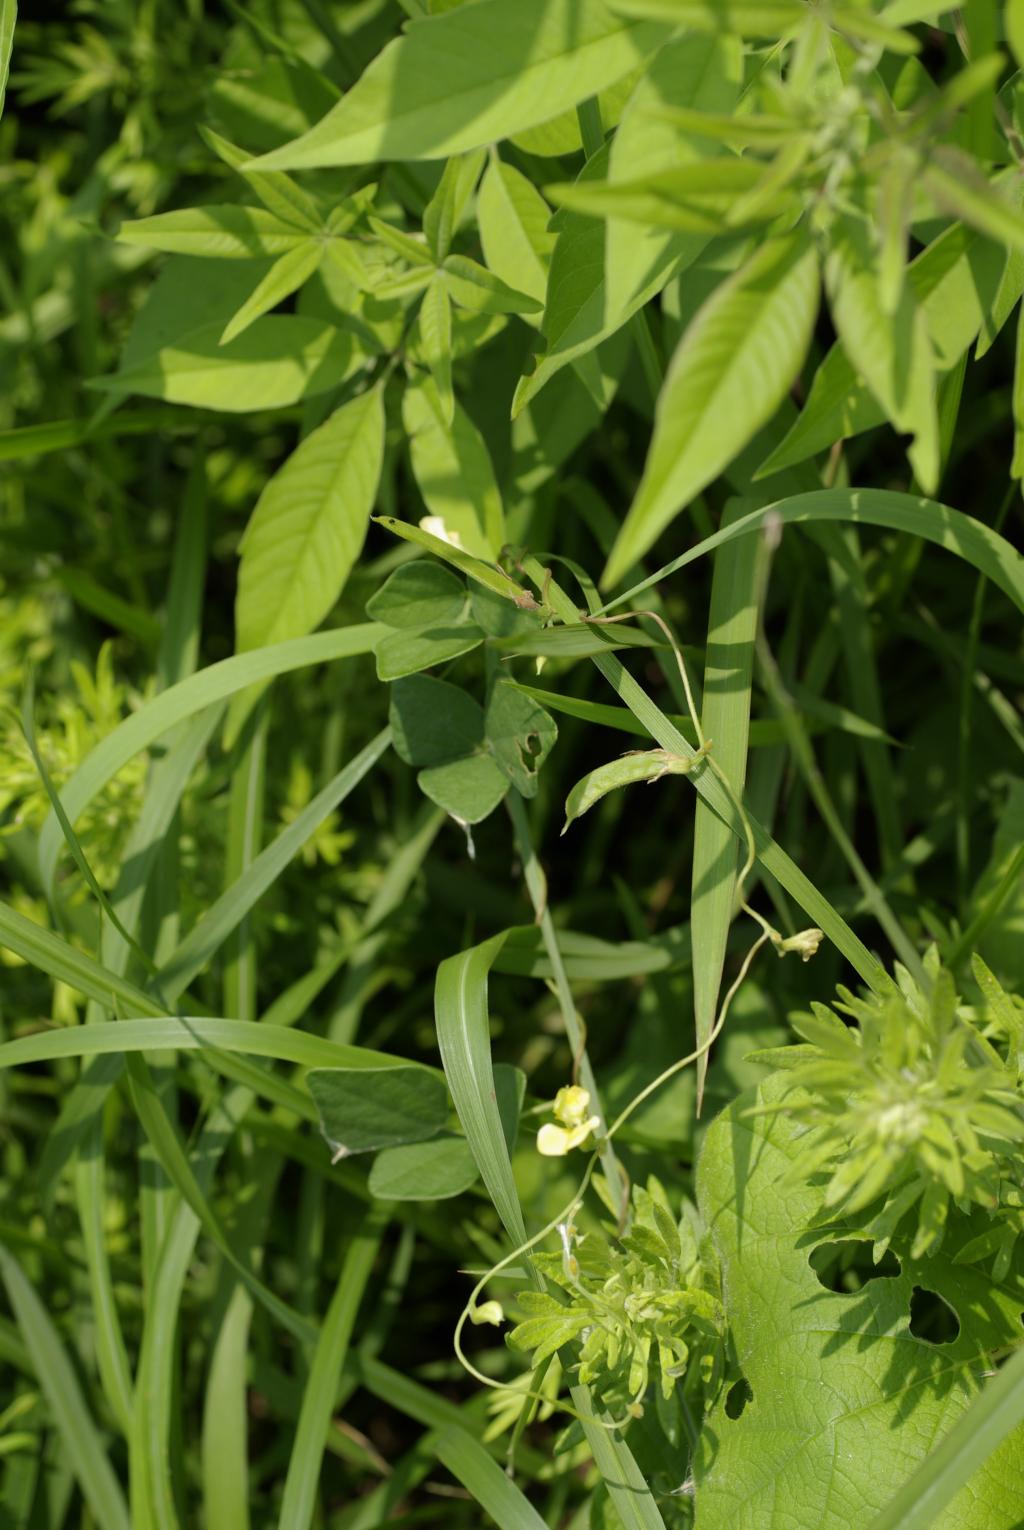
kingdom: Plantae
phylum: Tracheophyta
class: Magnoliopsida
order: Fabales
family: Fabaceae
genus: Dunbaria
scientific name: Dunbaria punctata
